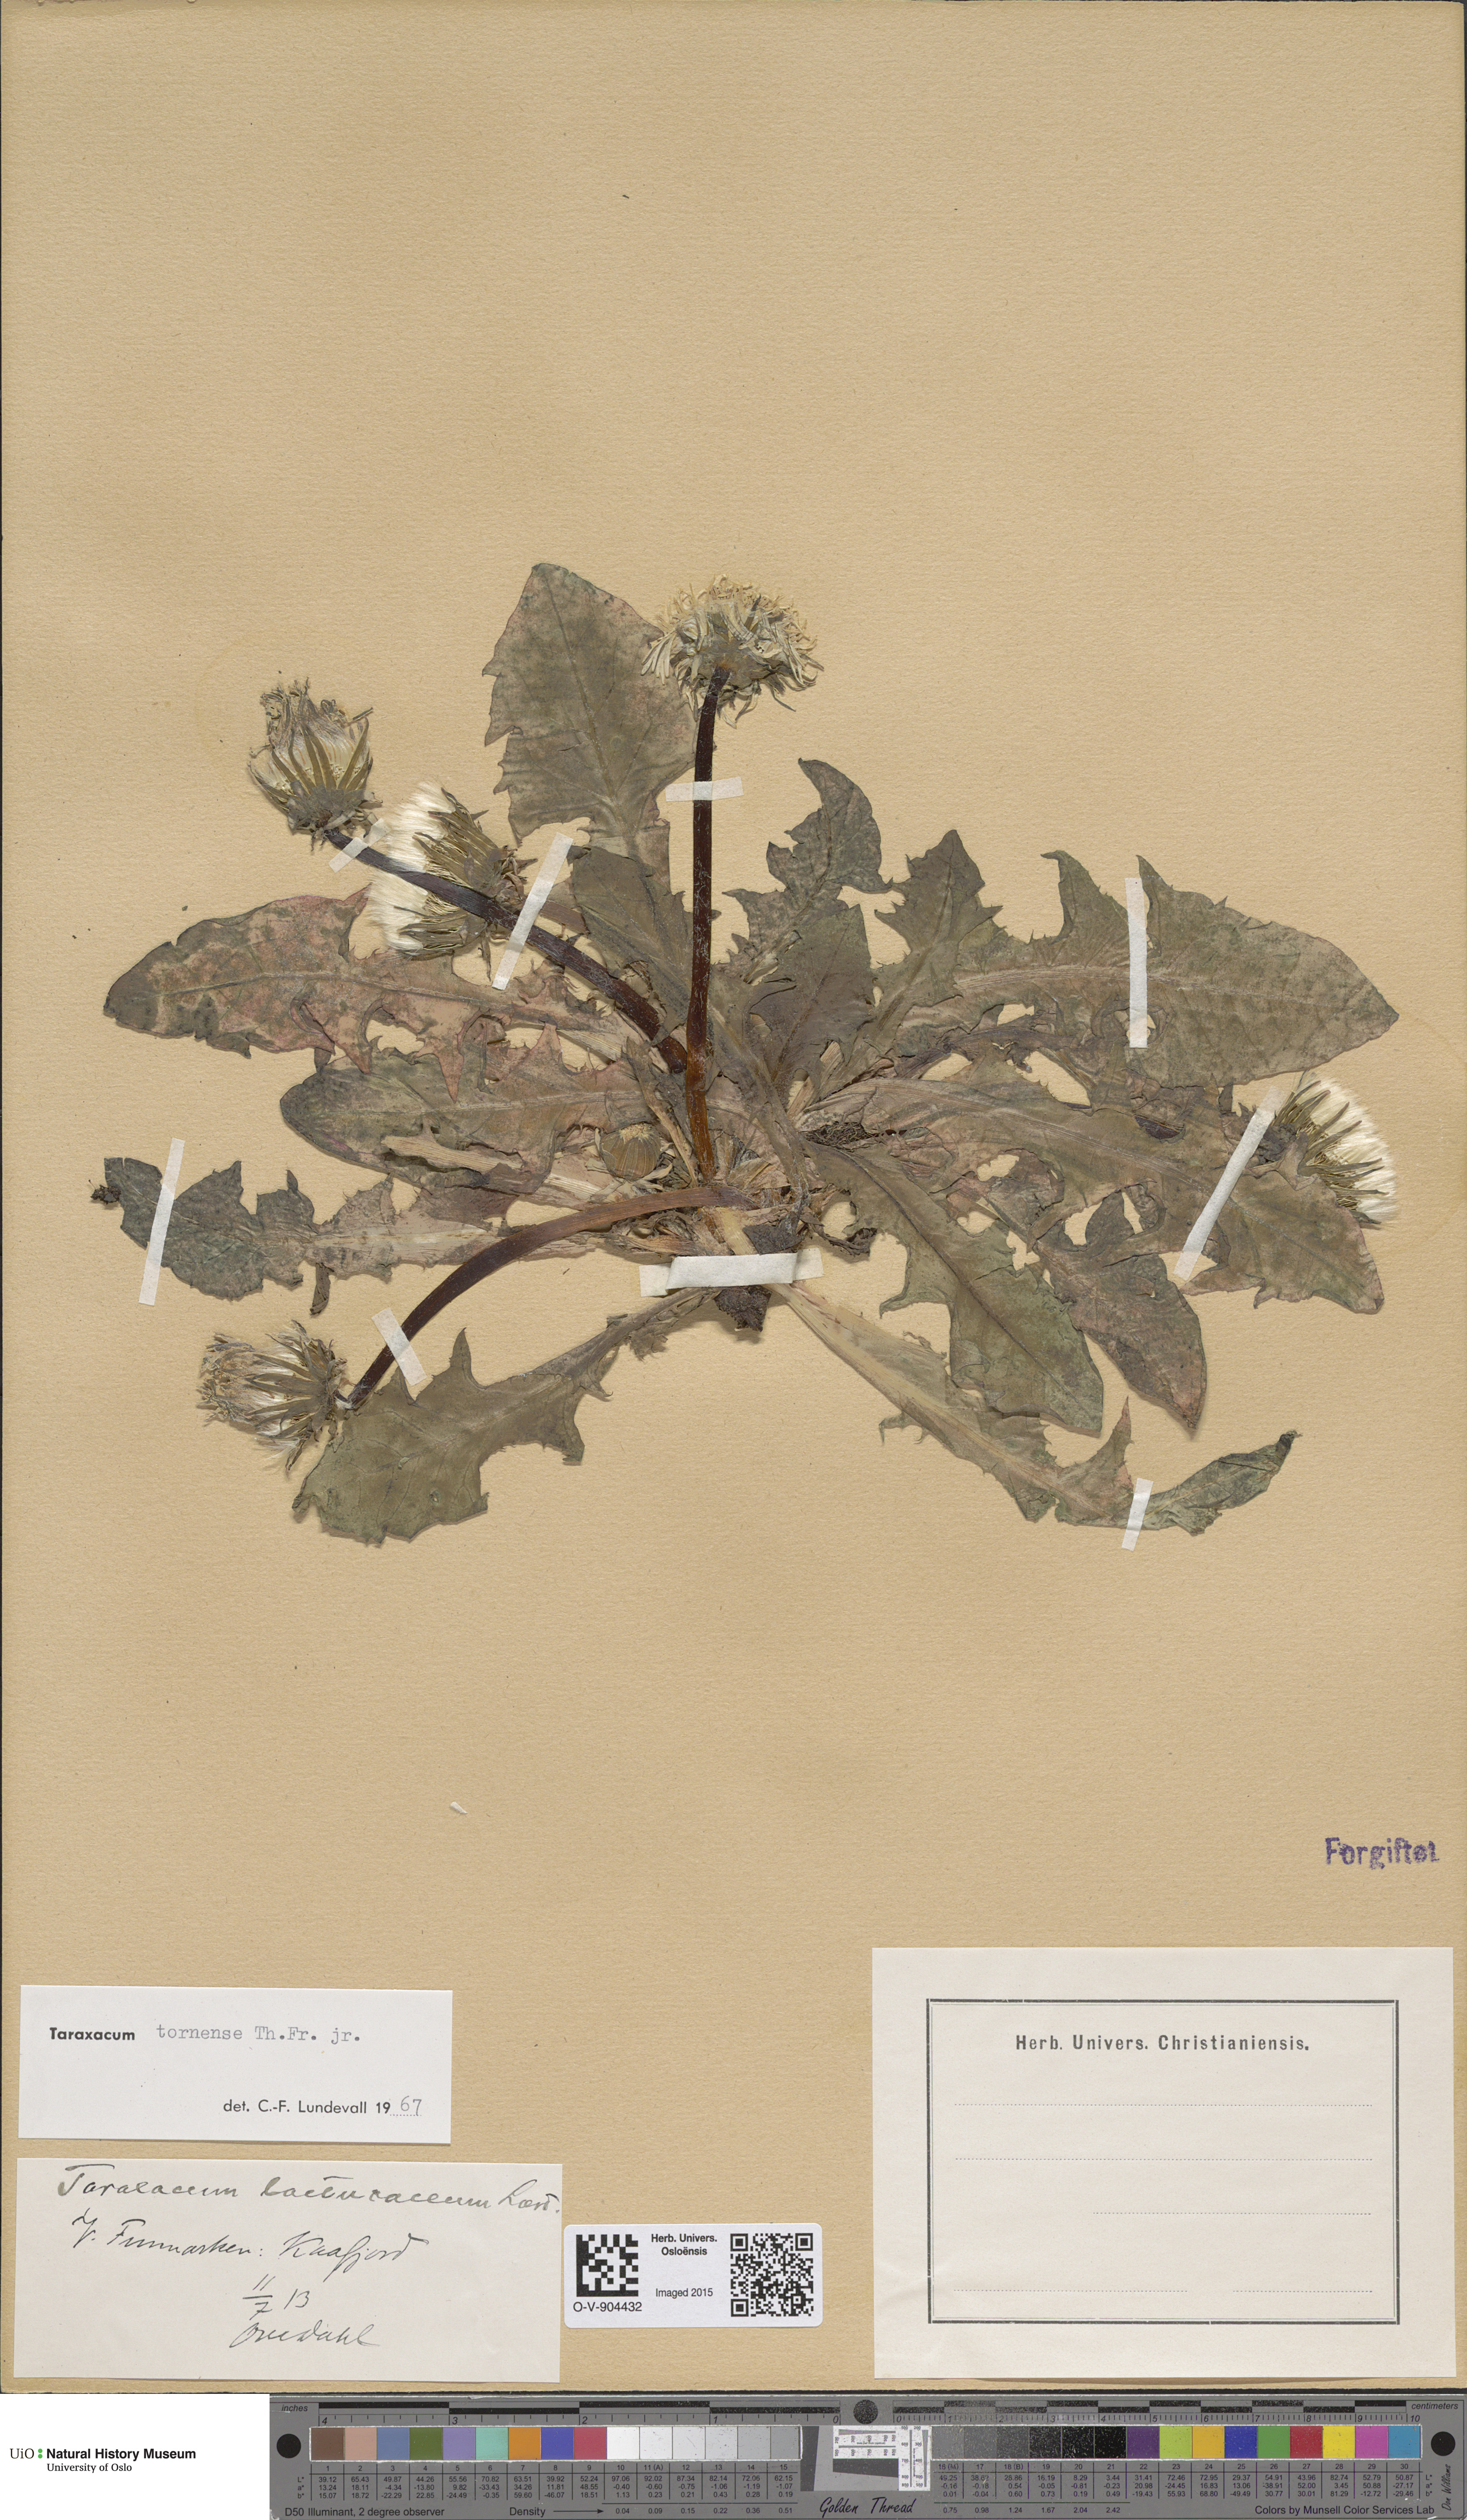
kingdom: Plantae
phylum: Tracheophyta
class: Magnoliopsida
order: Asterales
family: Asteraceae
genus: Taraxacum
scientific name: Taraxacum tornense
